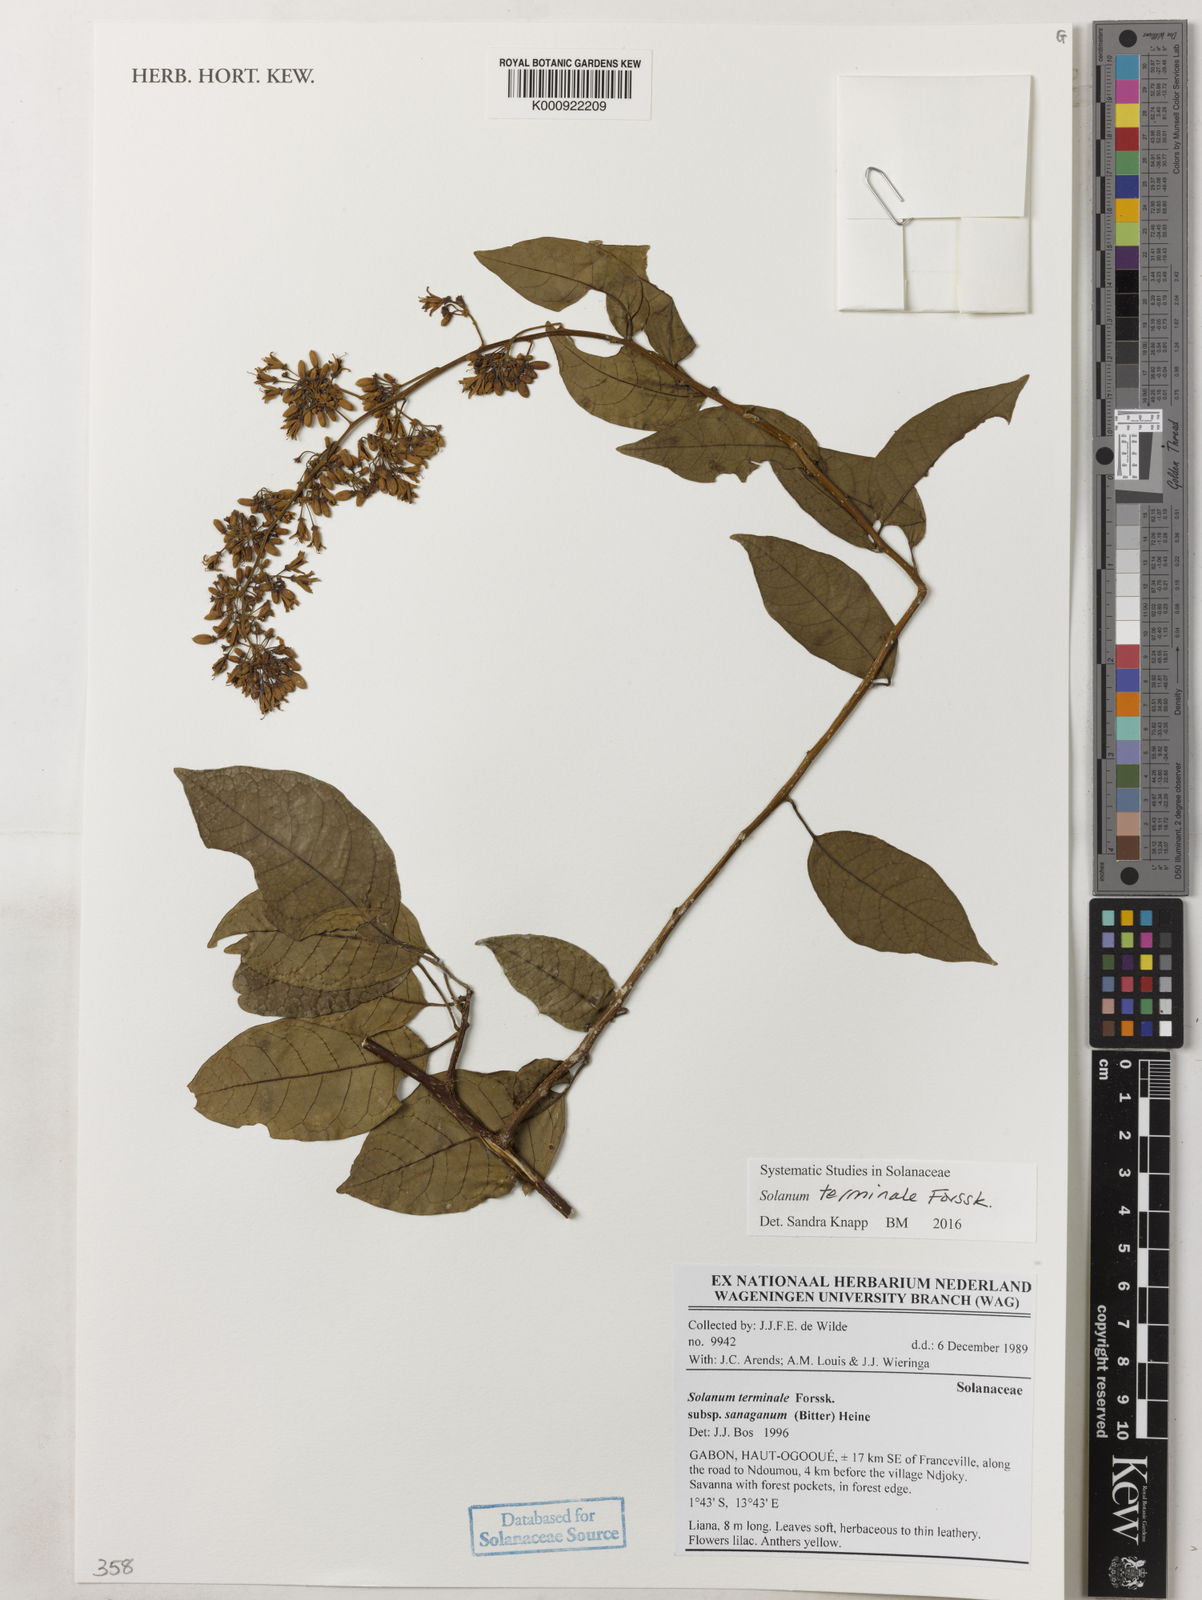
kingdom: Plantae
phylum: Tracheophyta
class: Magnoliopsida
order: Solanales
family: Solanaceae
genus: Solanum
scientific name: Solanum terminale
